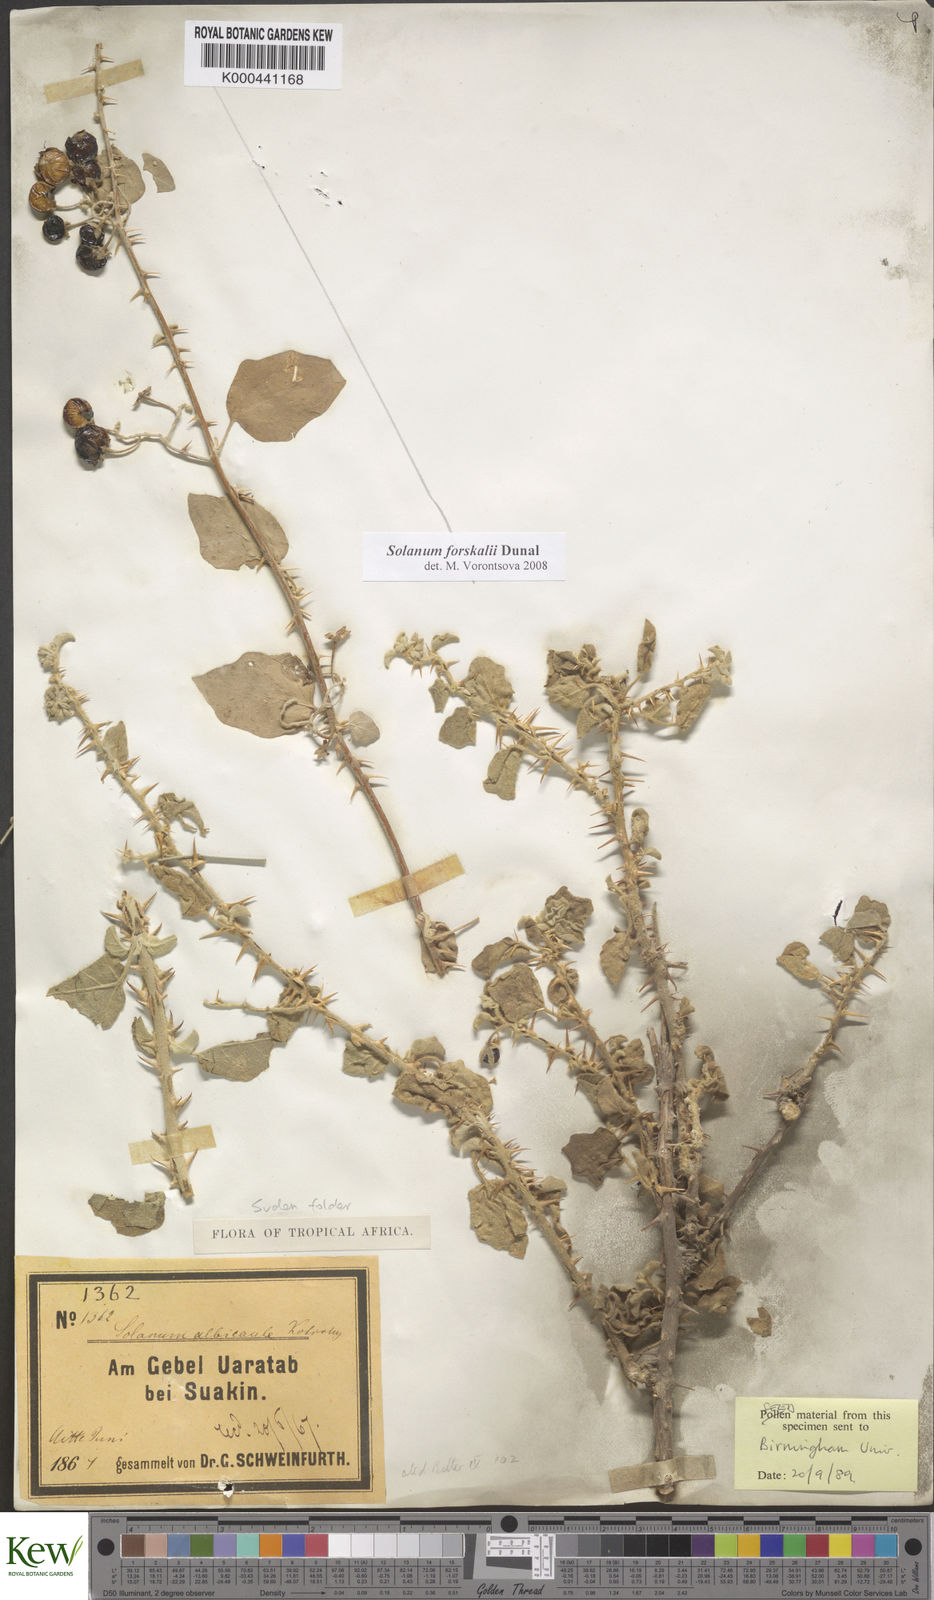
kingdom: Plantae
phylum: Tracheophyta
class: Magnoliopsida
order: Solanales
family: Solanaceae
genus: Solanum
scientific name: Solanum
